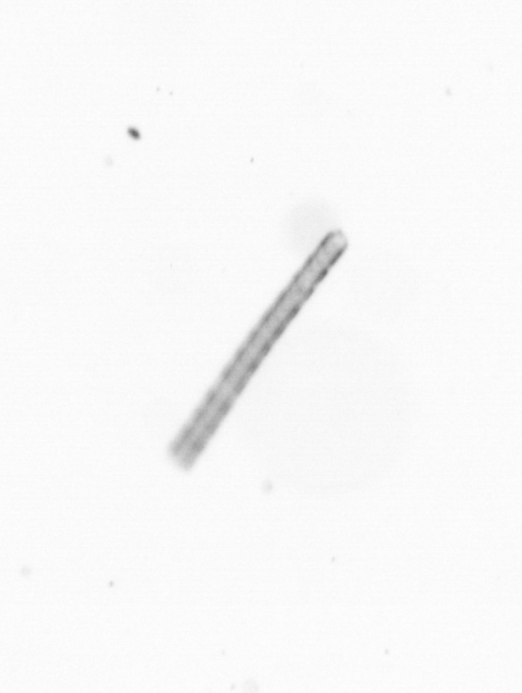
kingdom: Chromista
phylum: Ochrophyta
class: Bacillariophyceae
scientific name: Bacillariophyceae
